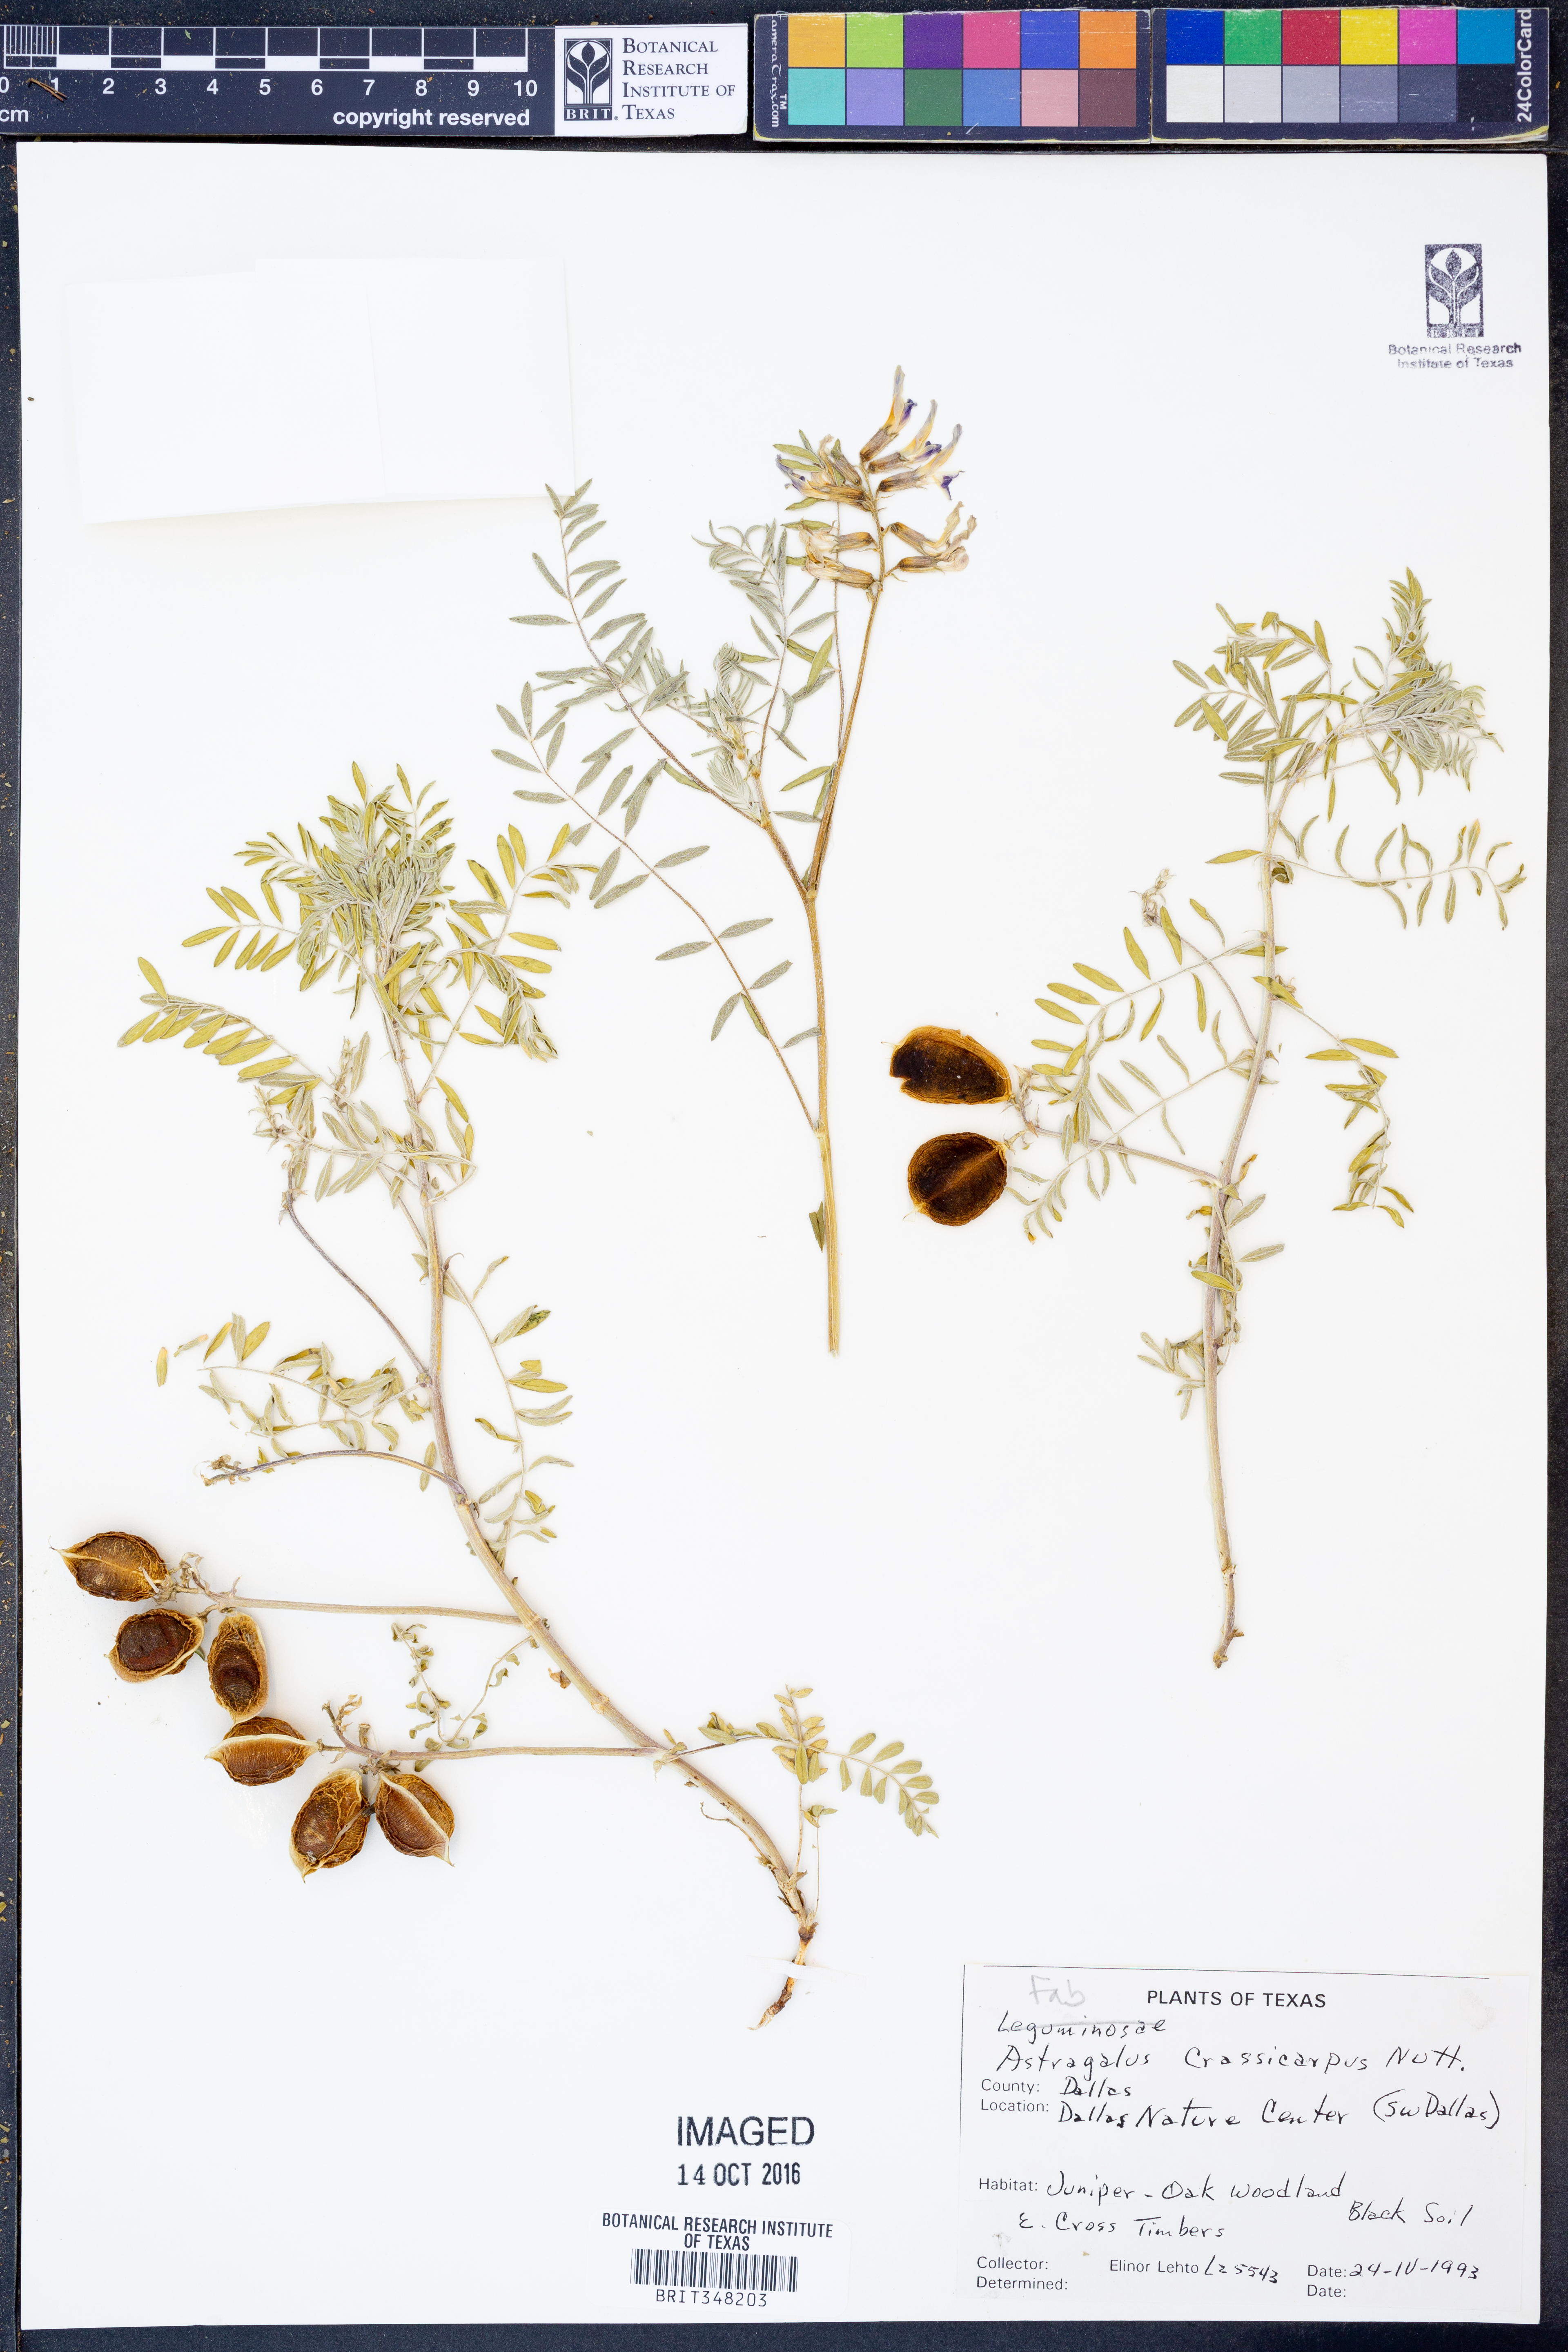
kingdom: Plantae
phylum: Tracheophyta
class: Magnoliopsida
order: Fabales
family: Fabaceae
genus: Astragalus
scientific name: Astragalus crassicarpus
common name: Ground-plum milk-vetch
